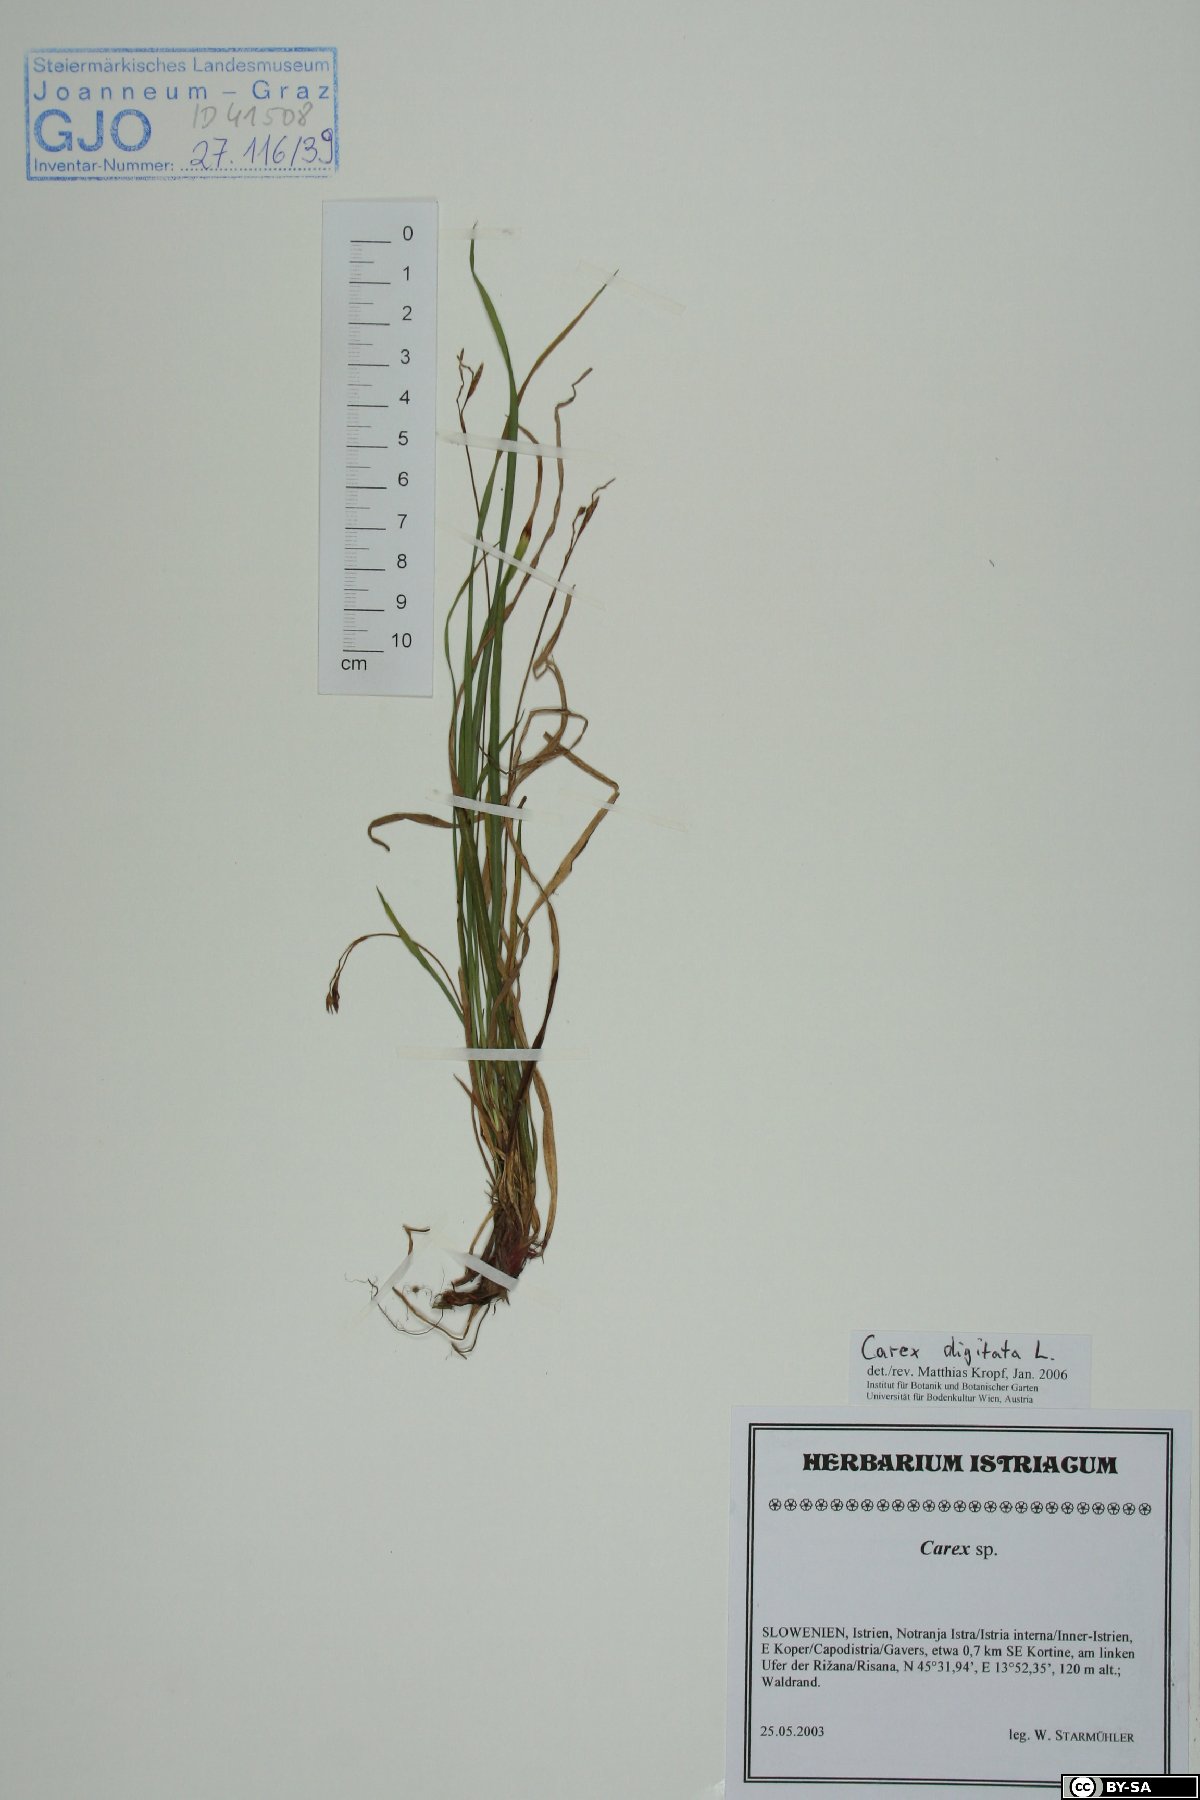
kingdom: Plantae
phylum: Tracheophyta
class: Liliopsida
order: Poales
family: Cyperaceae
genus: Carex
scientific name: Carex digitata
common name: Fingered sedge
